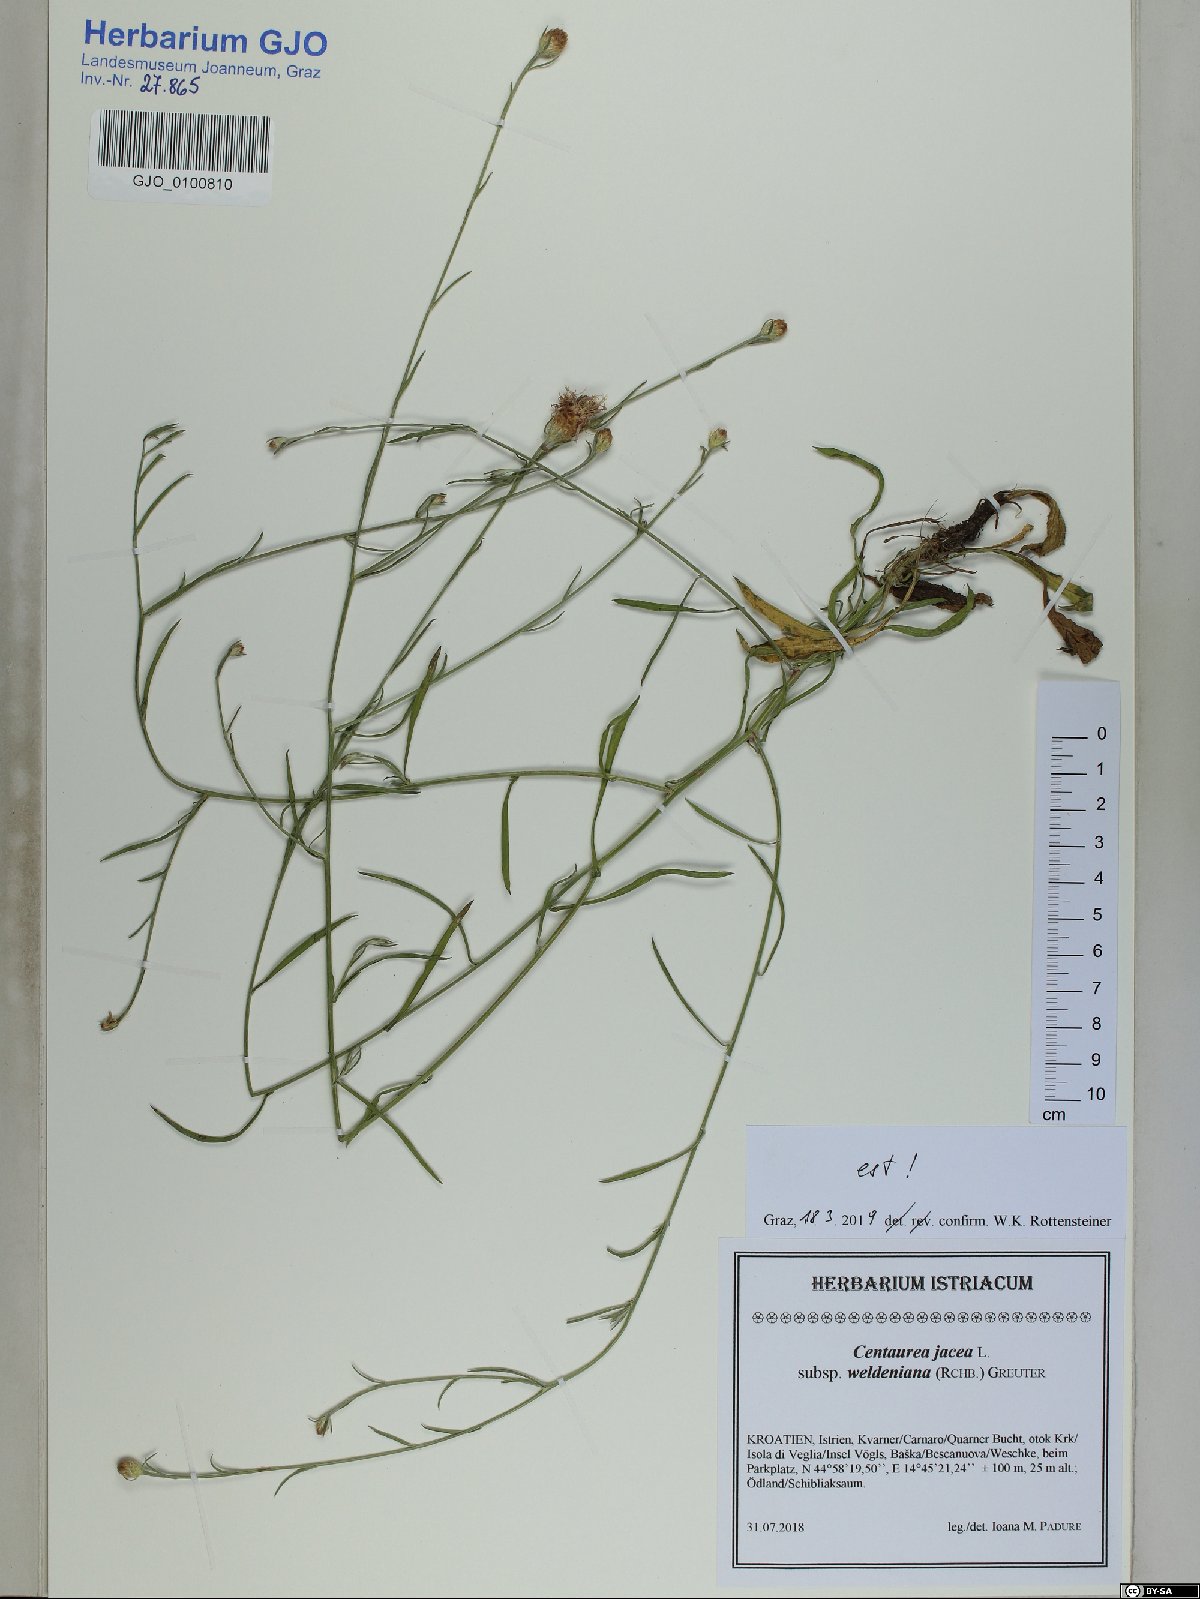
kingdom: Plantae
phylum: Tracheophyta
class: Magnoliopsida
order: Asterales
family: Asteraceae
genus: Centaurea
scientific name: Centaurea jacea
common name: Brown knapweed
